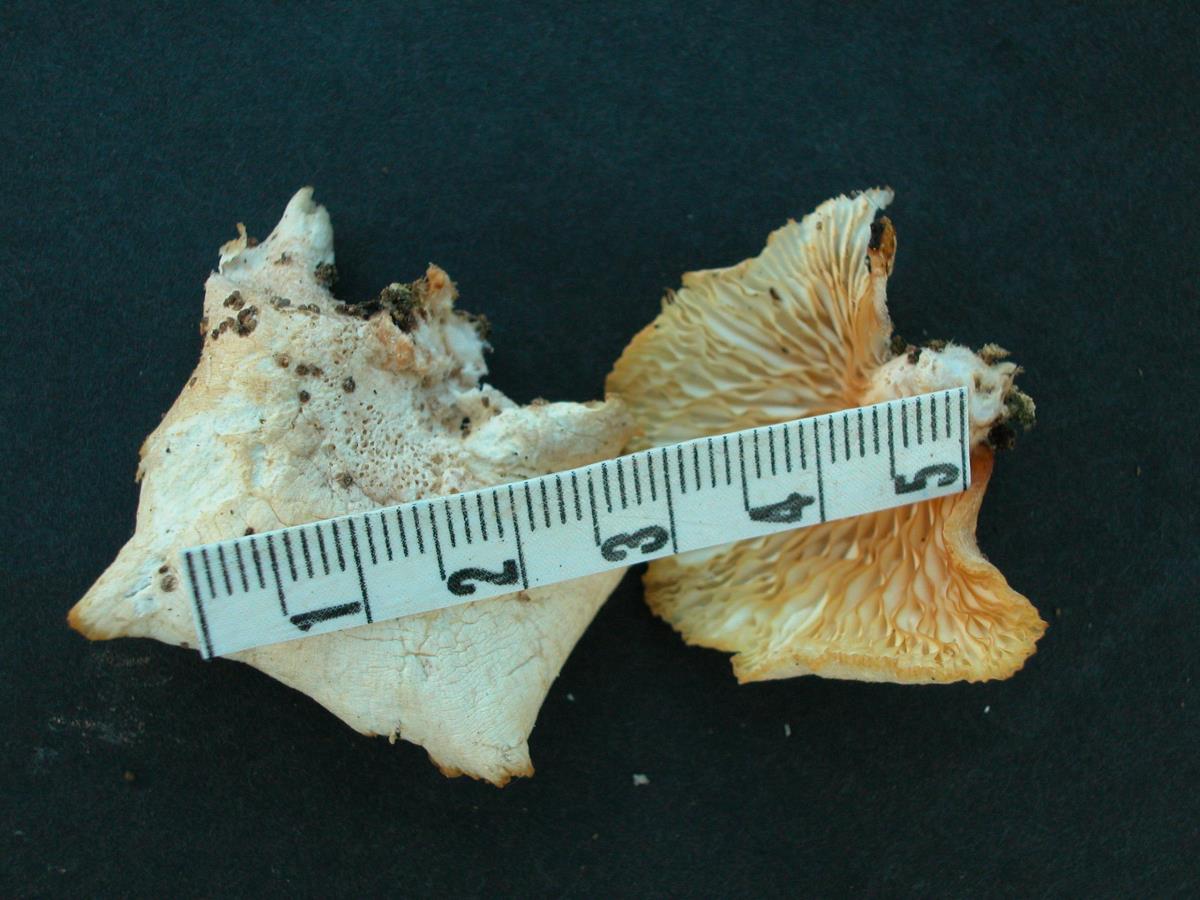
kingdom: Fungi
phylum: Basidiomycota
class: Agaricomycetes
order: Agaricales
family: Pleurotaceae
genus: Pleurotus
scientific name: Pleurotus djamor
